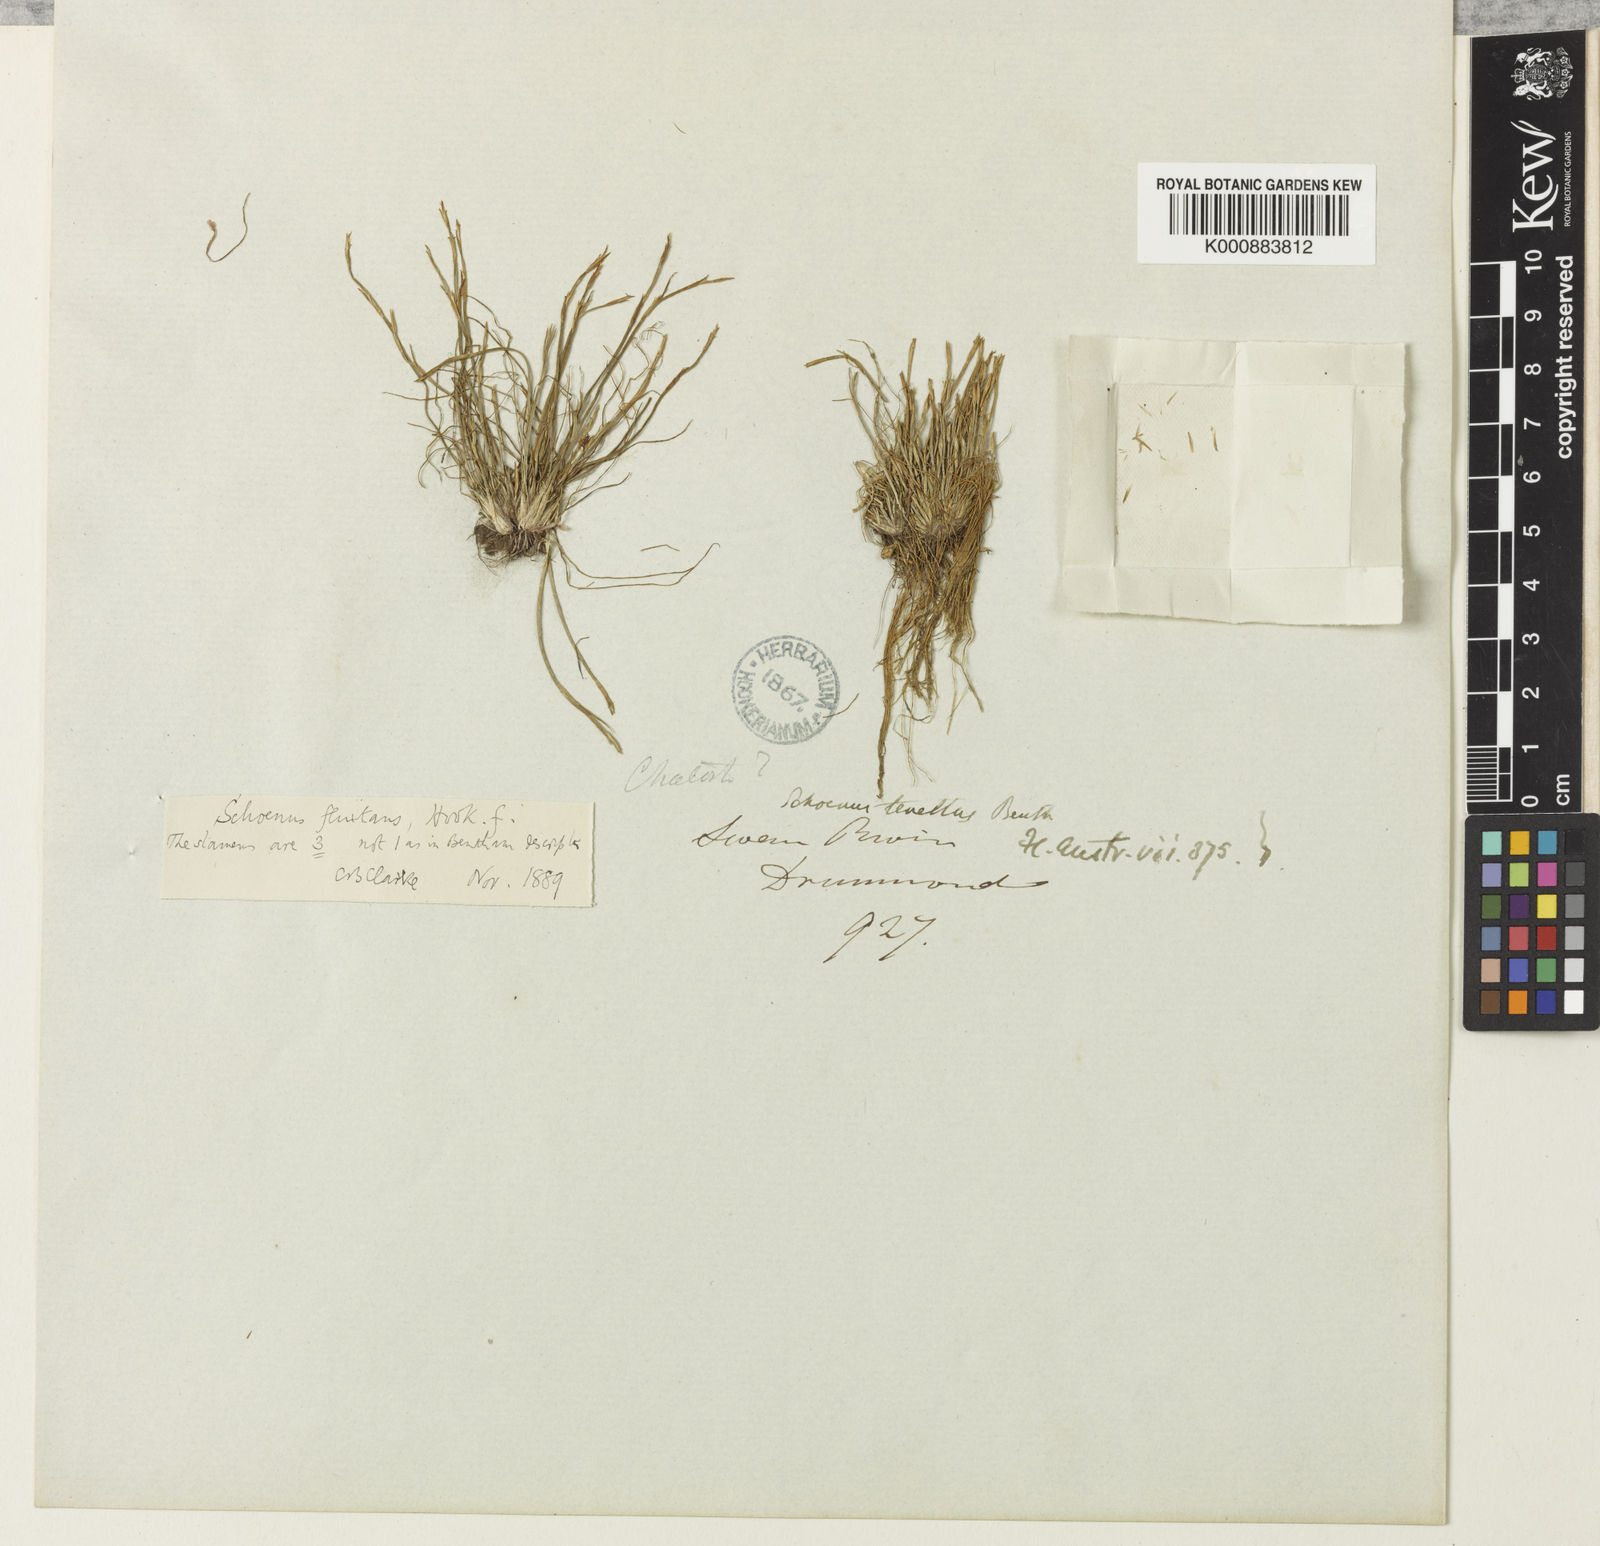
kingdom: Plantae
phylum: Tracheophyta
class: Liliopsida
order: Poales
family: Cyperaceae
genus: Schoenus
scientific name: Schoenus fluitans
